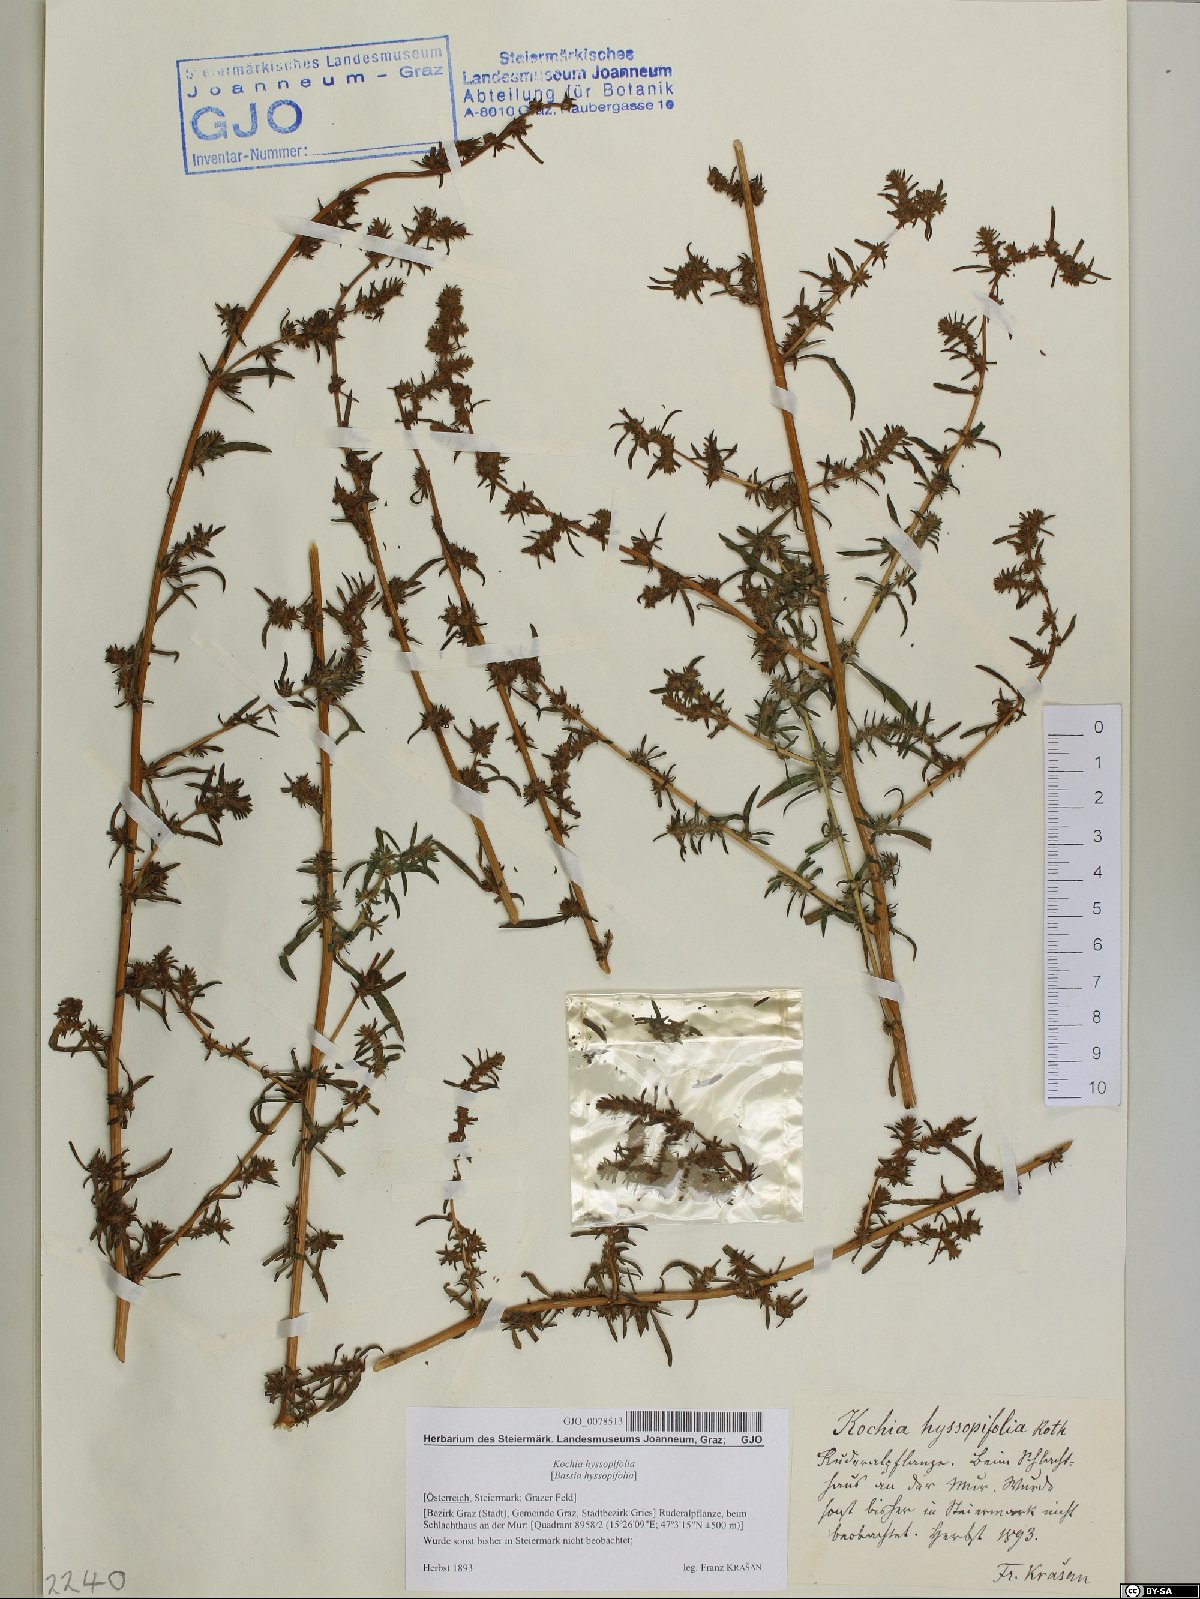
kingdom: Plantae
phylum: Tracheophyta
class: Magnoliopsida
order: Caryophyllales
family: Amaranthaceae
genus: Bassia
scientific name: Bassia hyssopifolia
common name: Fivehorn smotherweed
